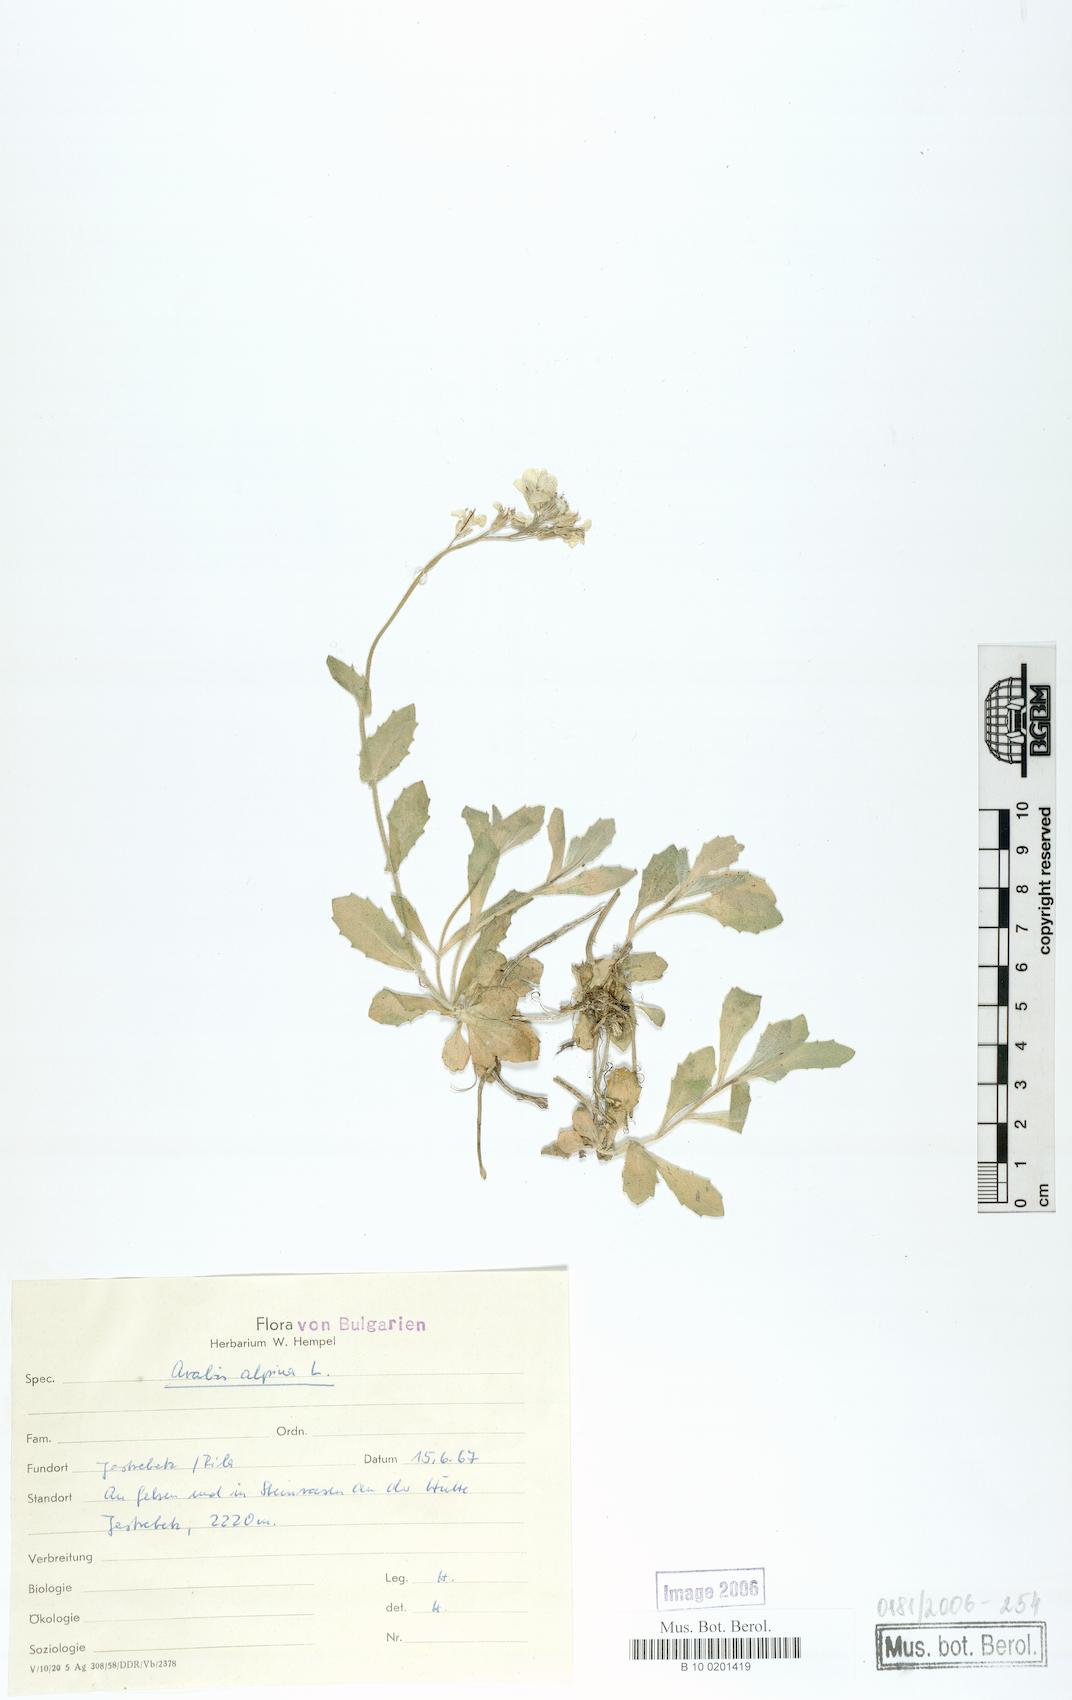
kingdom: Plantae
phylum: Tracheophyta
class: Magnoliopsida
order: Brassicales
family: Brassicaceae
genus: Arabis
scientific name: Arabis alpina
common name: Alpine rock-cress
